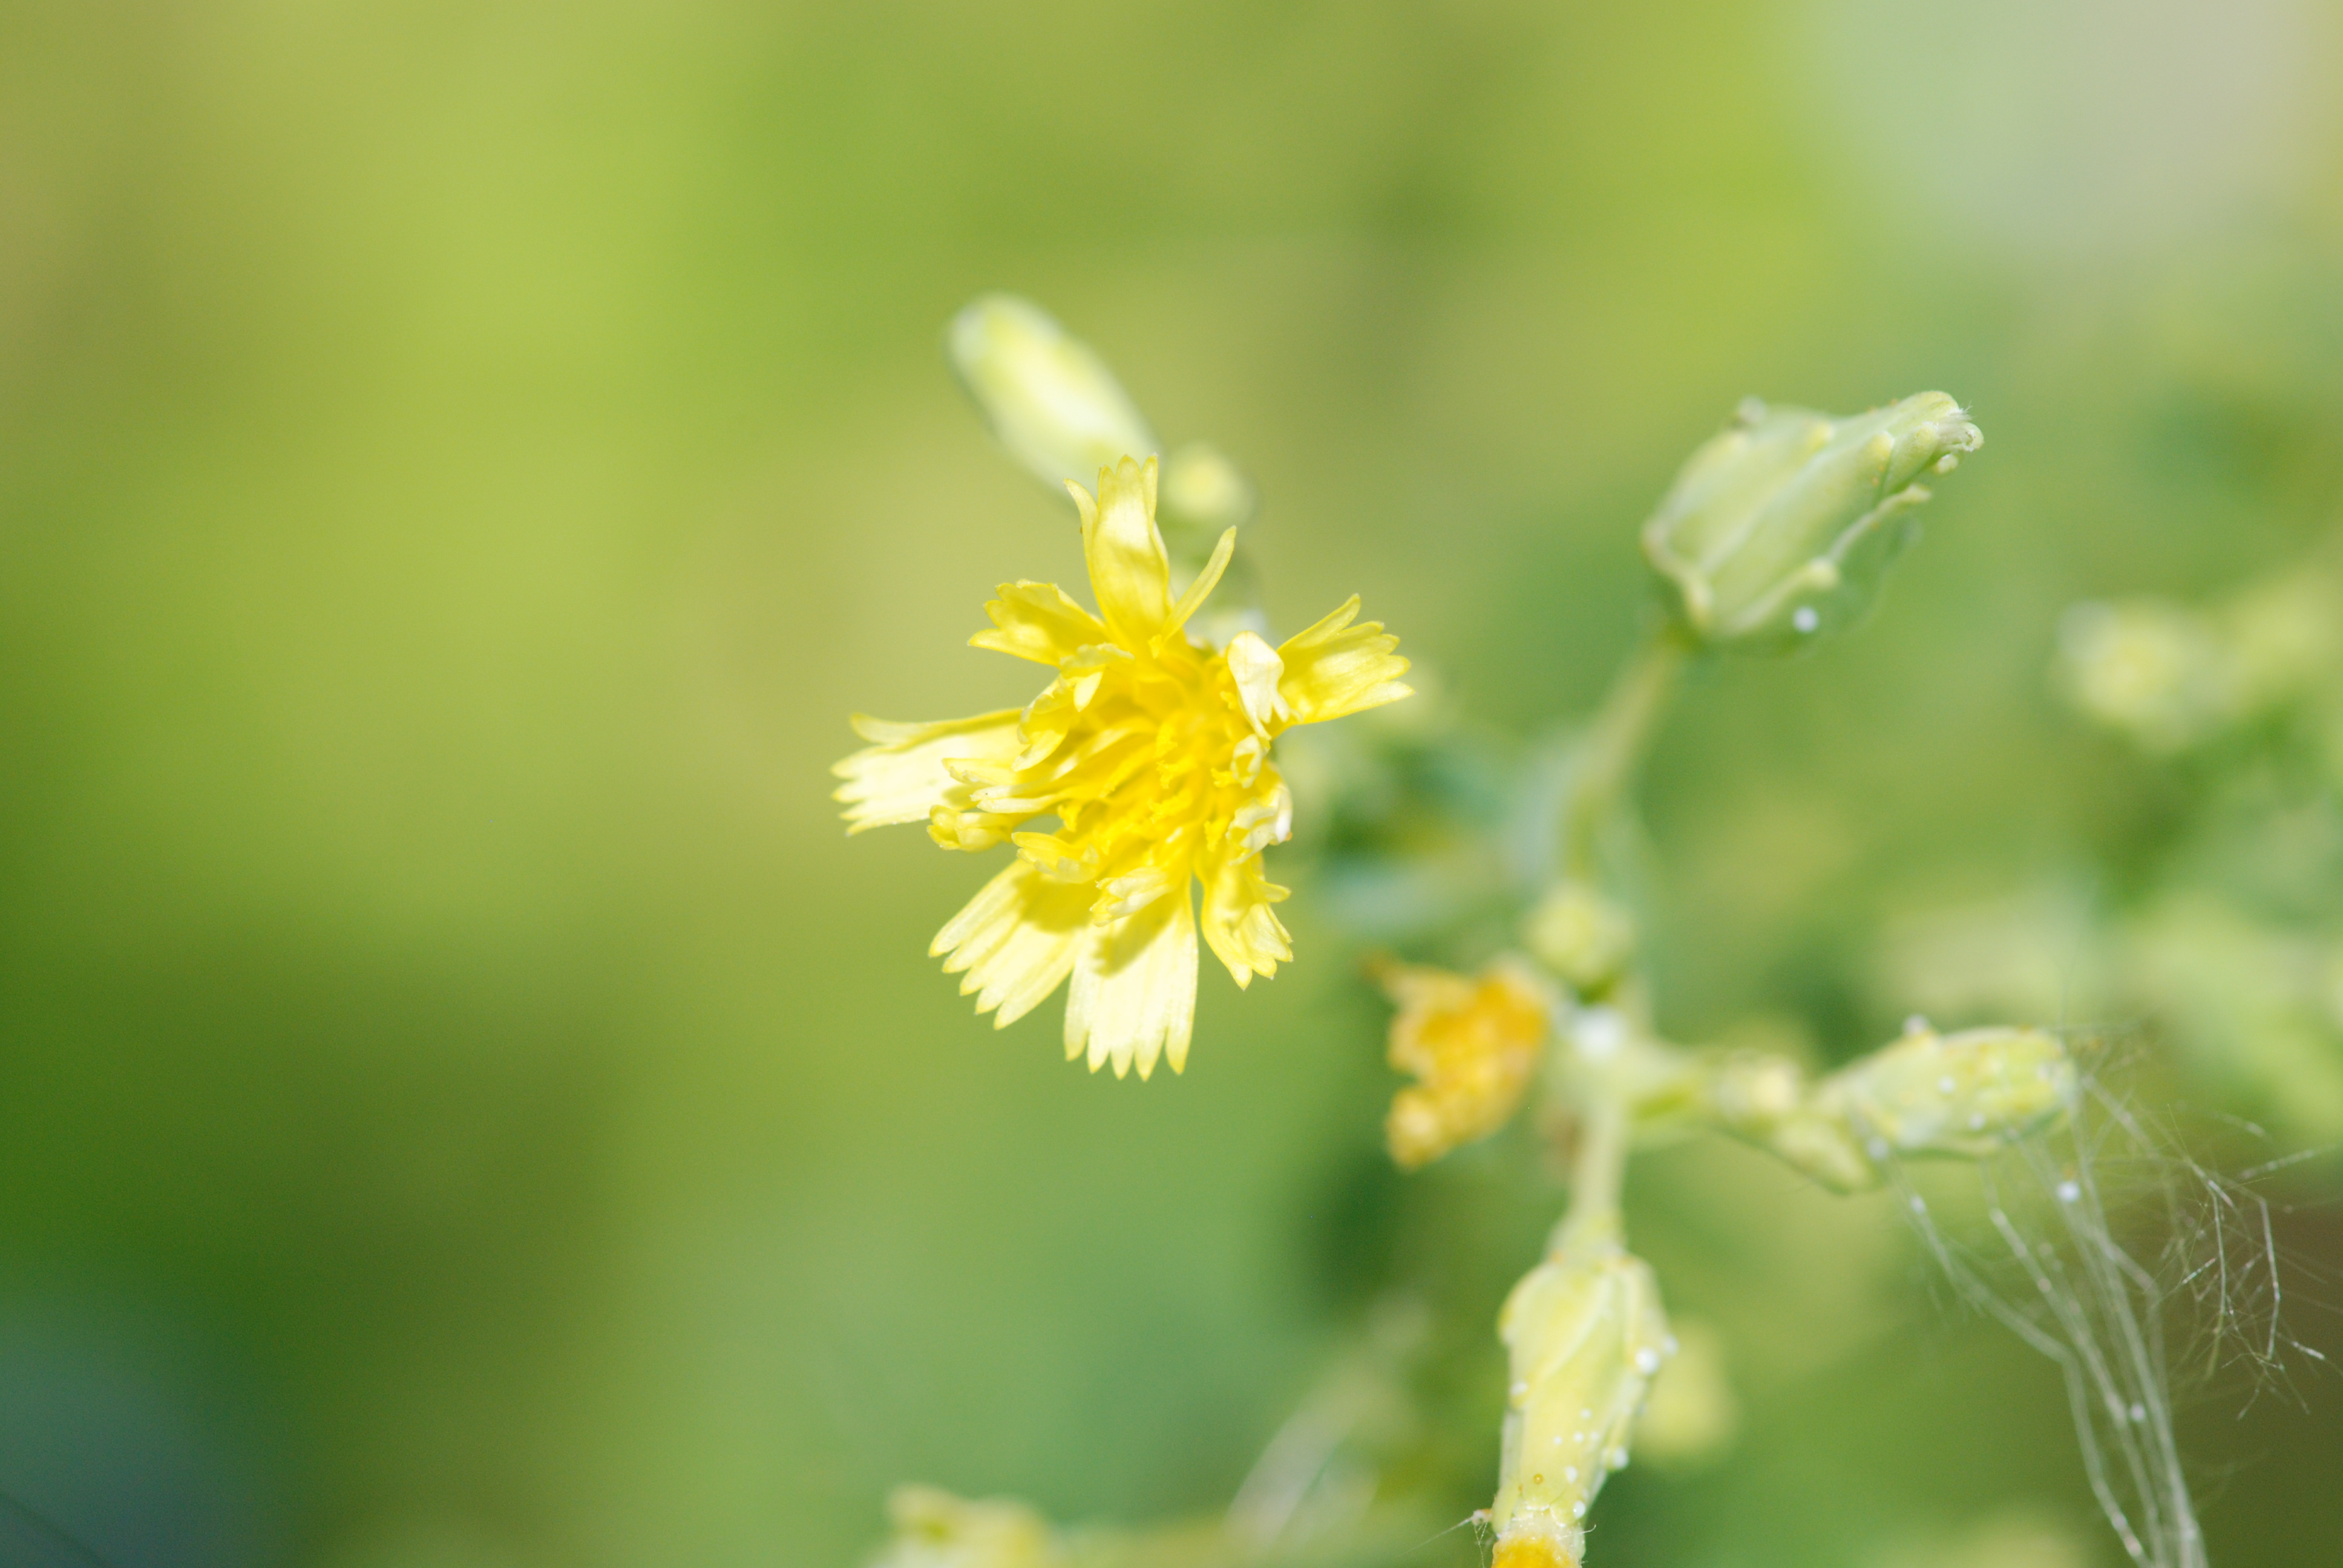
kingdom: Plantae
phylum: Tracheophyta
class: Magnoliopsida
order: Asterales
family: Asteraceae
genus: Lactuca
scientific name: Lactuca sativa
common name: Garden lettuce
